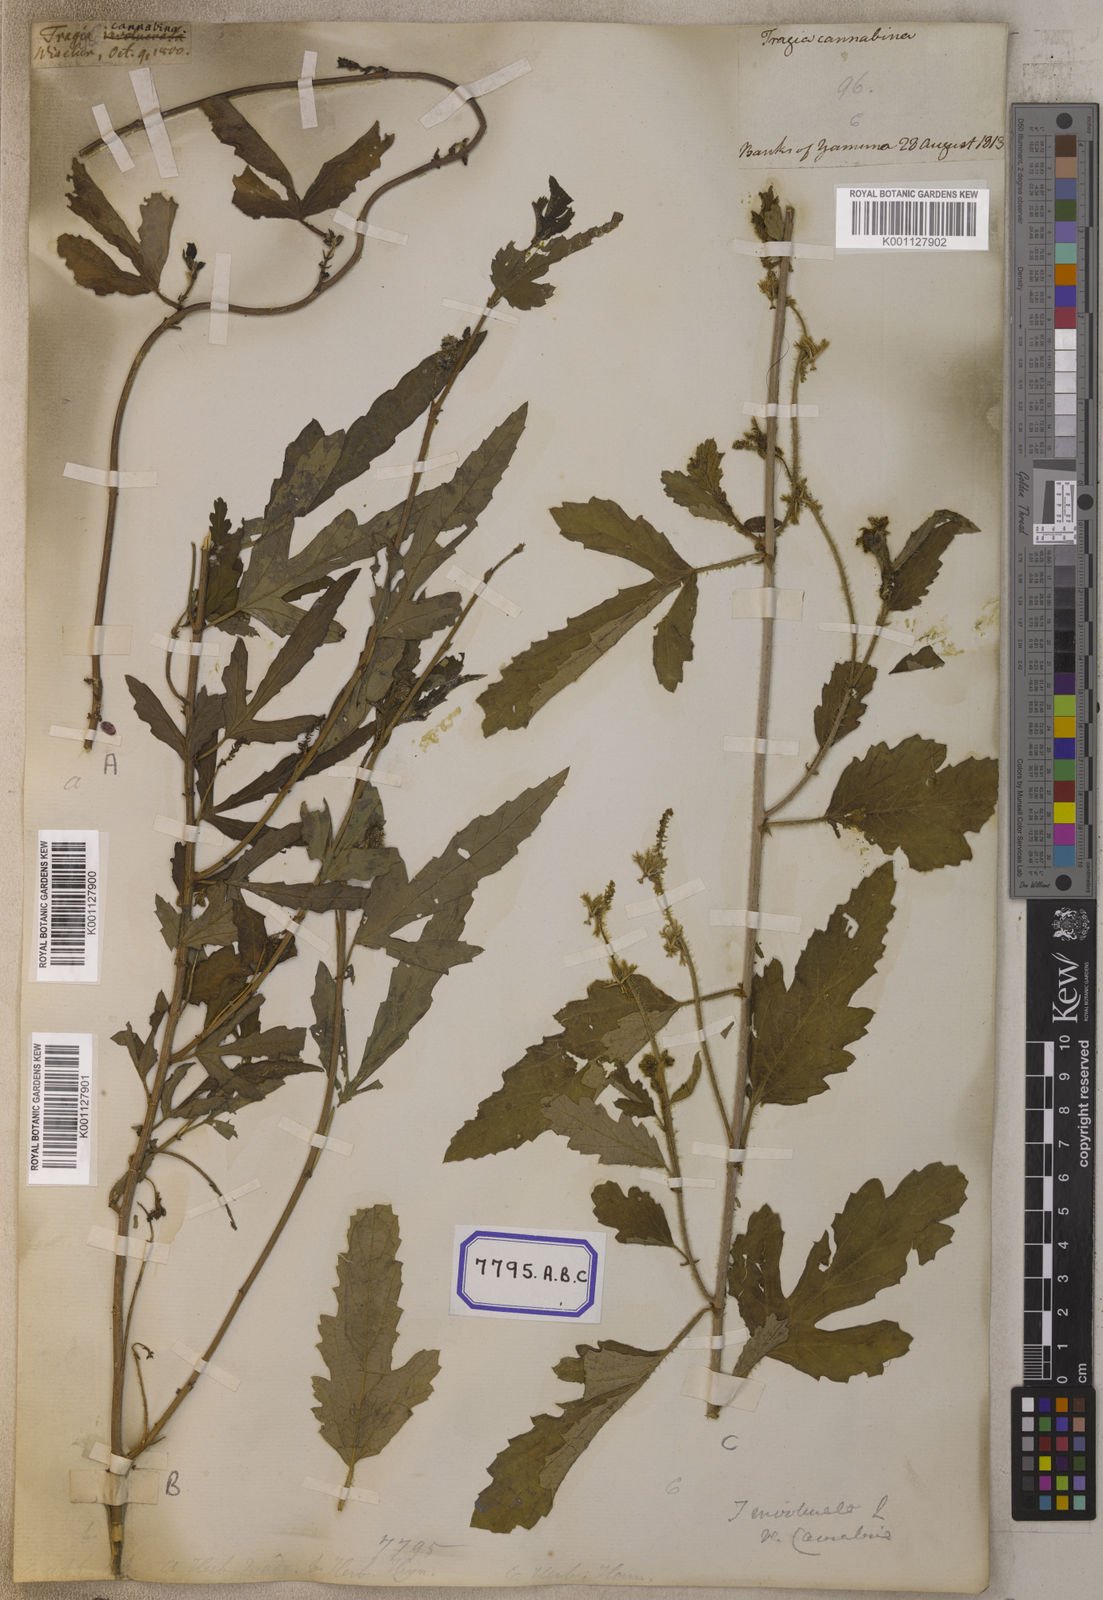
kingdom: Plantae
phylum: Tracheophyta
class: Magnoliopsida
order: Malpighiales
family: Euphorbiaceae
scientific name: Euphorbiaceae
